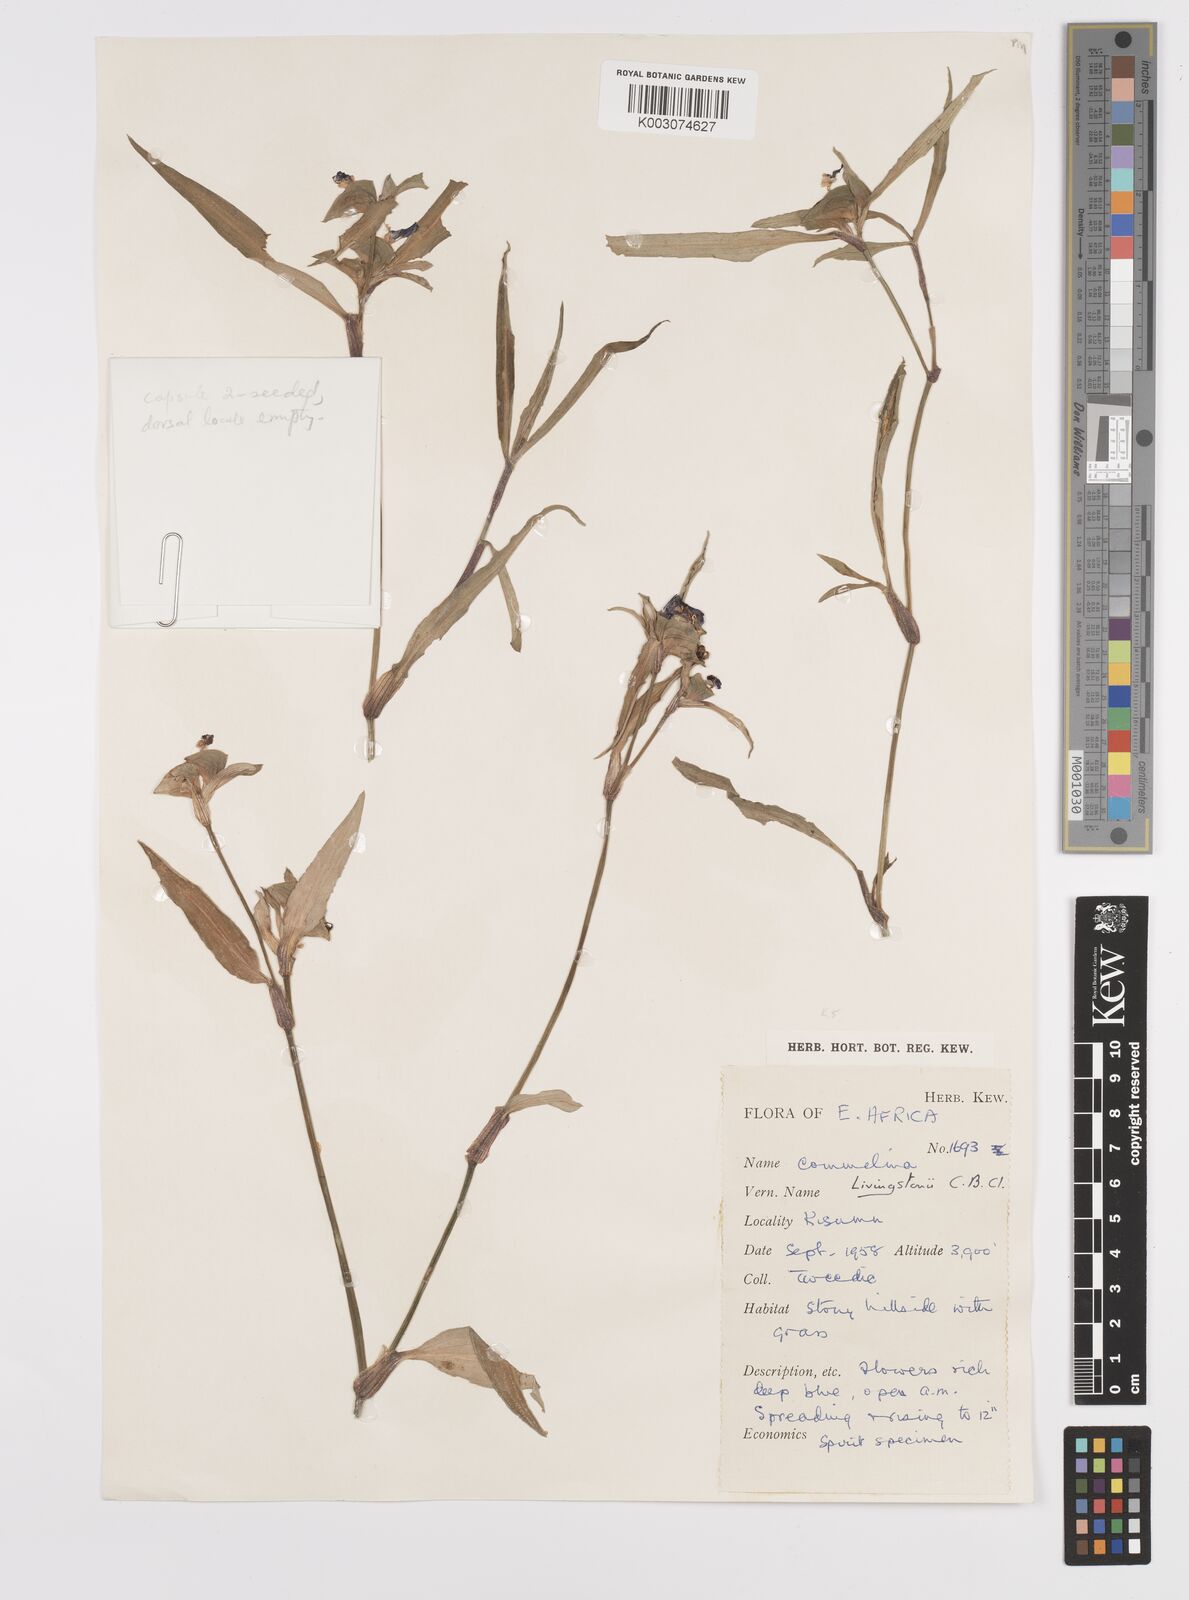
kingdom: Plantae
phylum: Tracheophyta
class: Liliopsida
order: Commelinales
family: Commelinaceae
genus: Commelina
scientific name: Commelina erecta
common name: Blousel blommetjie
